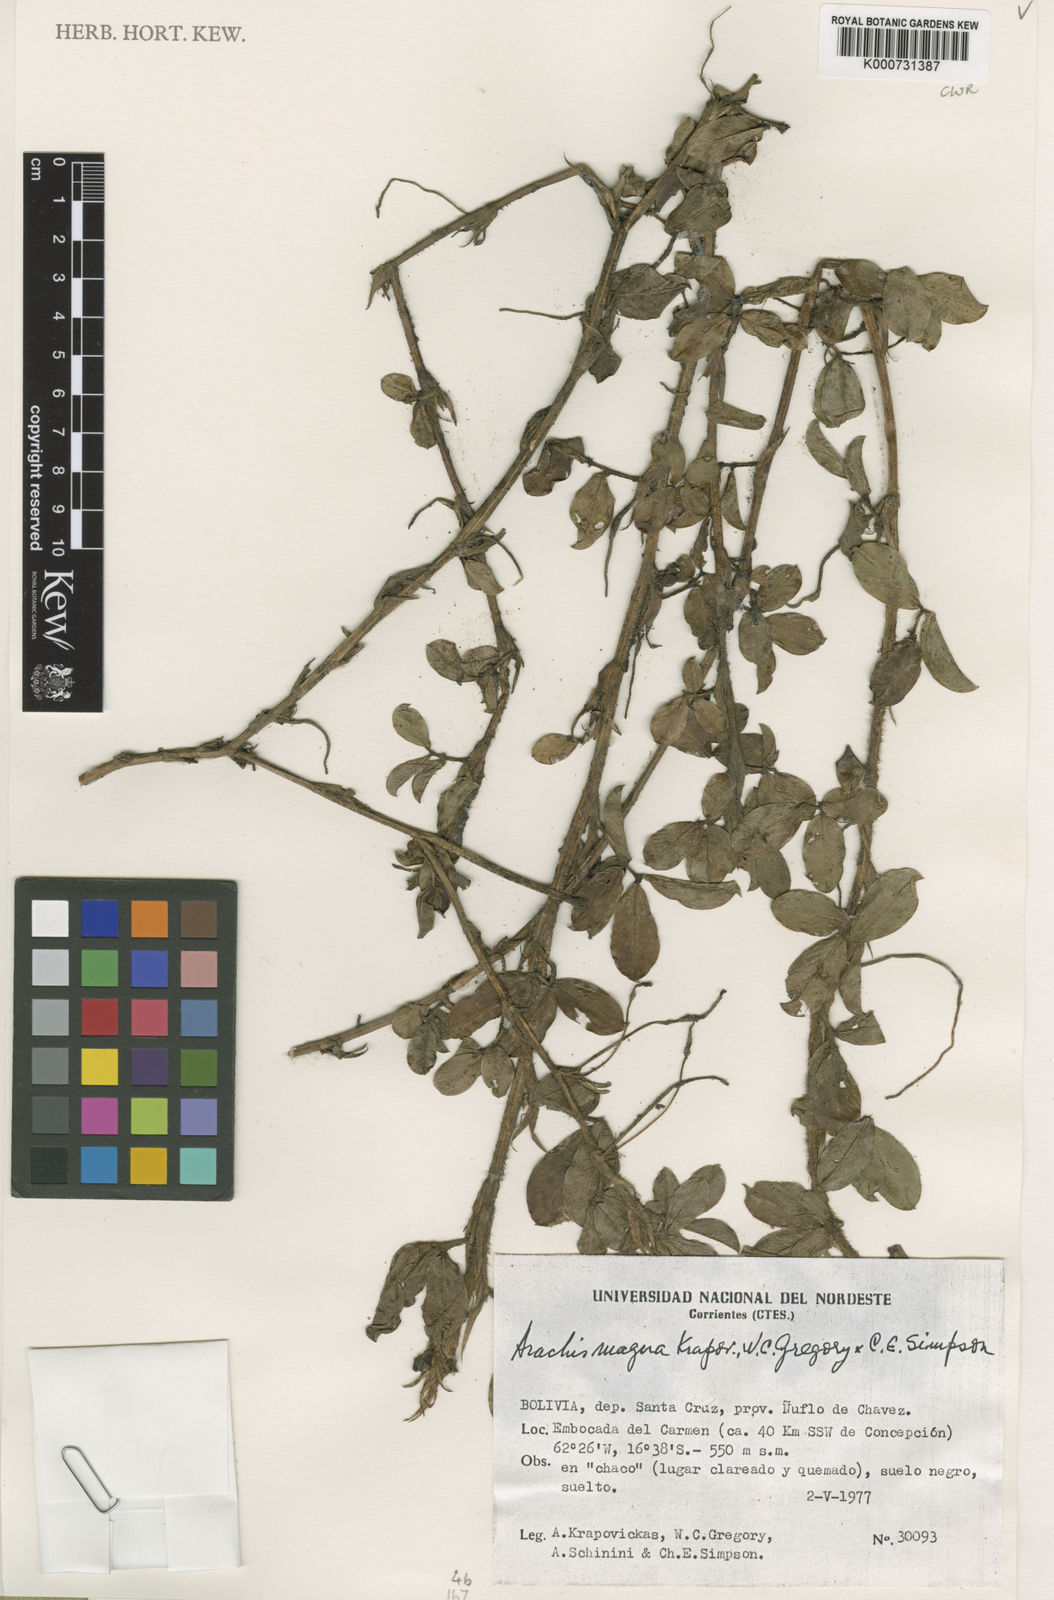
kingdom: Plantae
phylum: Tracheophyta
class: Magnoliopsida
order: Fabales
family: Fabaceae
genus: Arachis
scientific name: Arachis magna
